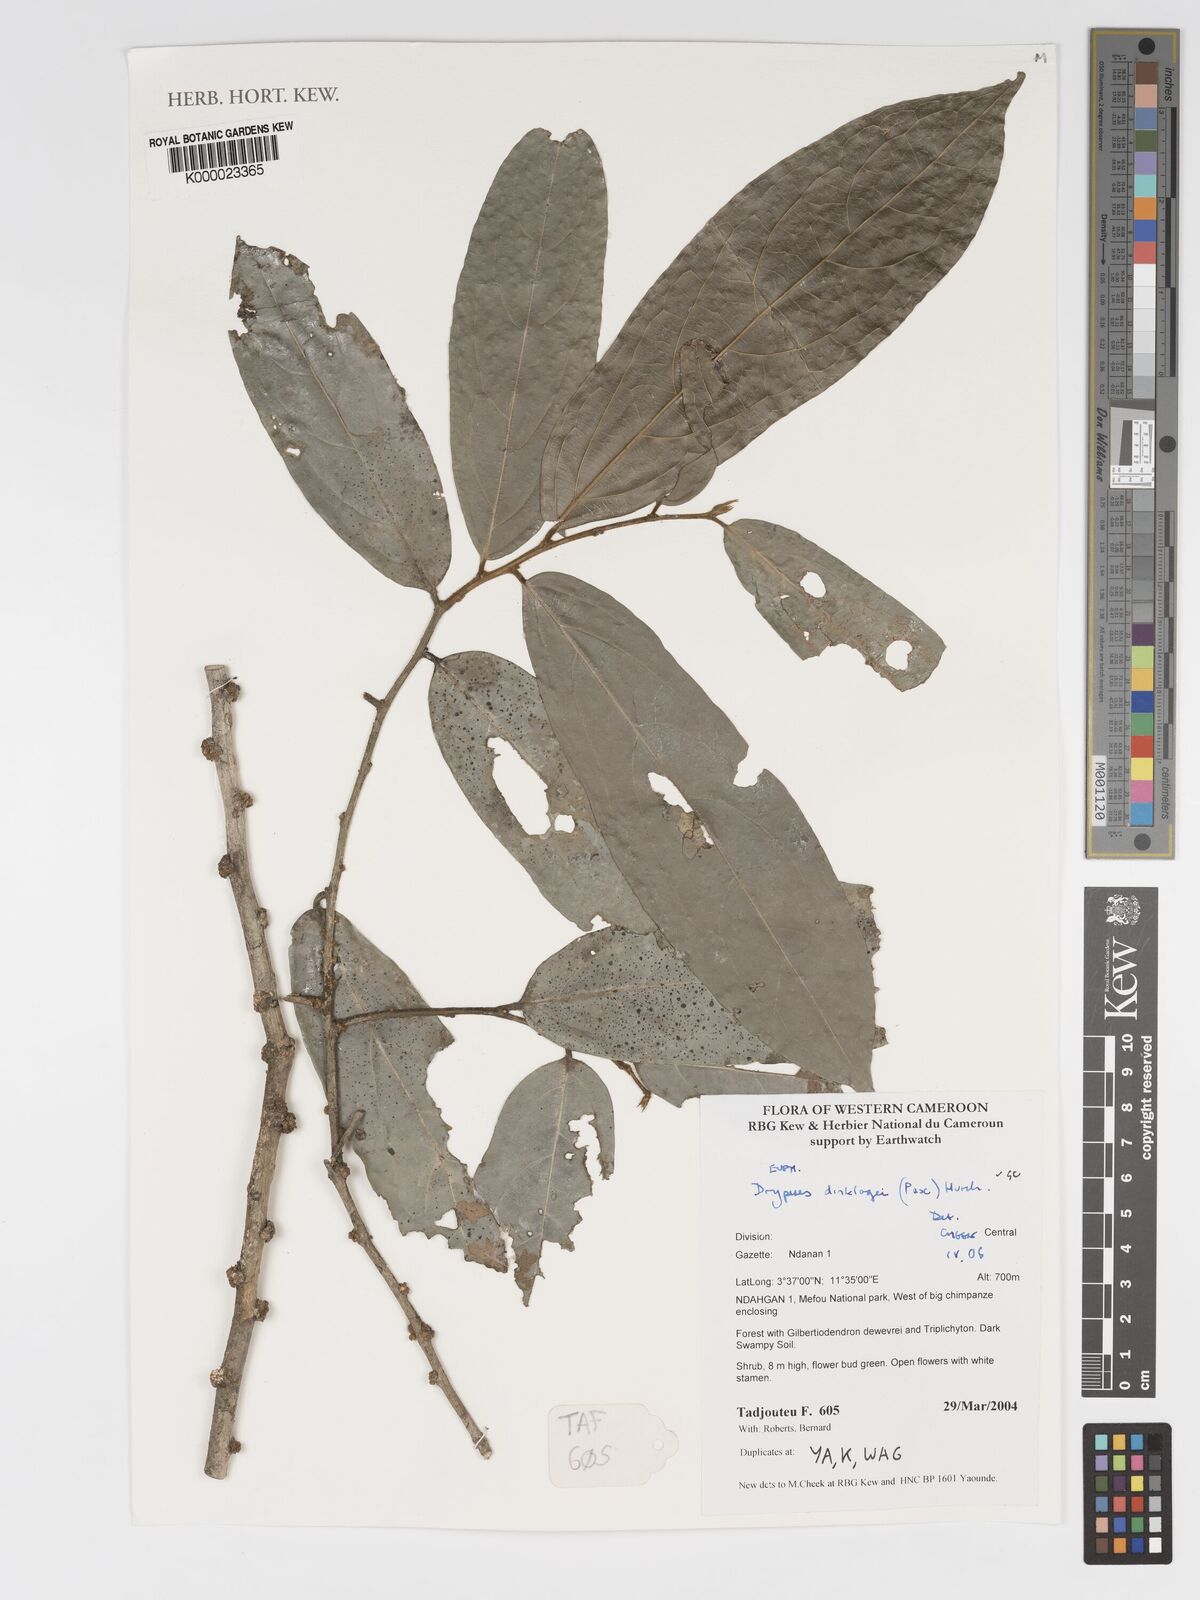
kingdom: Plantae
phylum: Tracheophyta
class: Magnoliopsida
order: Malpighiales
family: Putranjivaceae
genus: Drypetes
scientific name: Drypetes dinklagei
